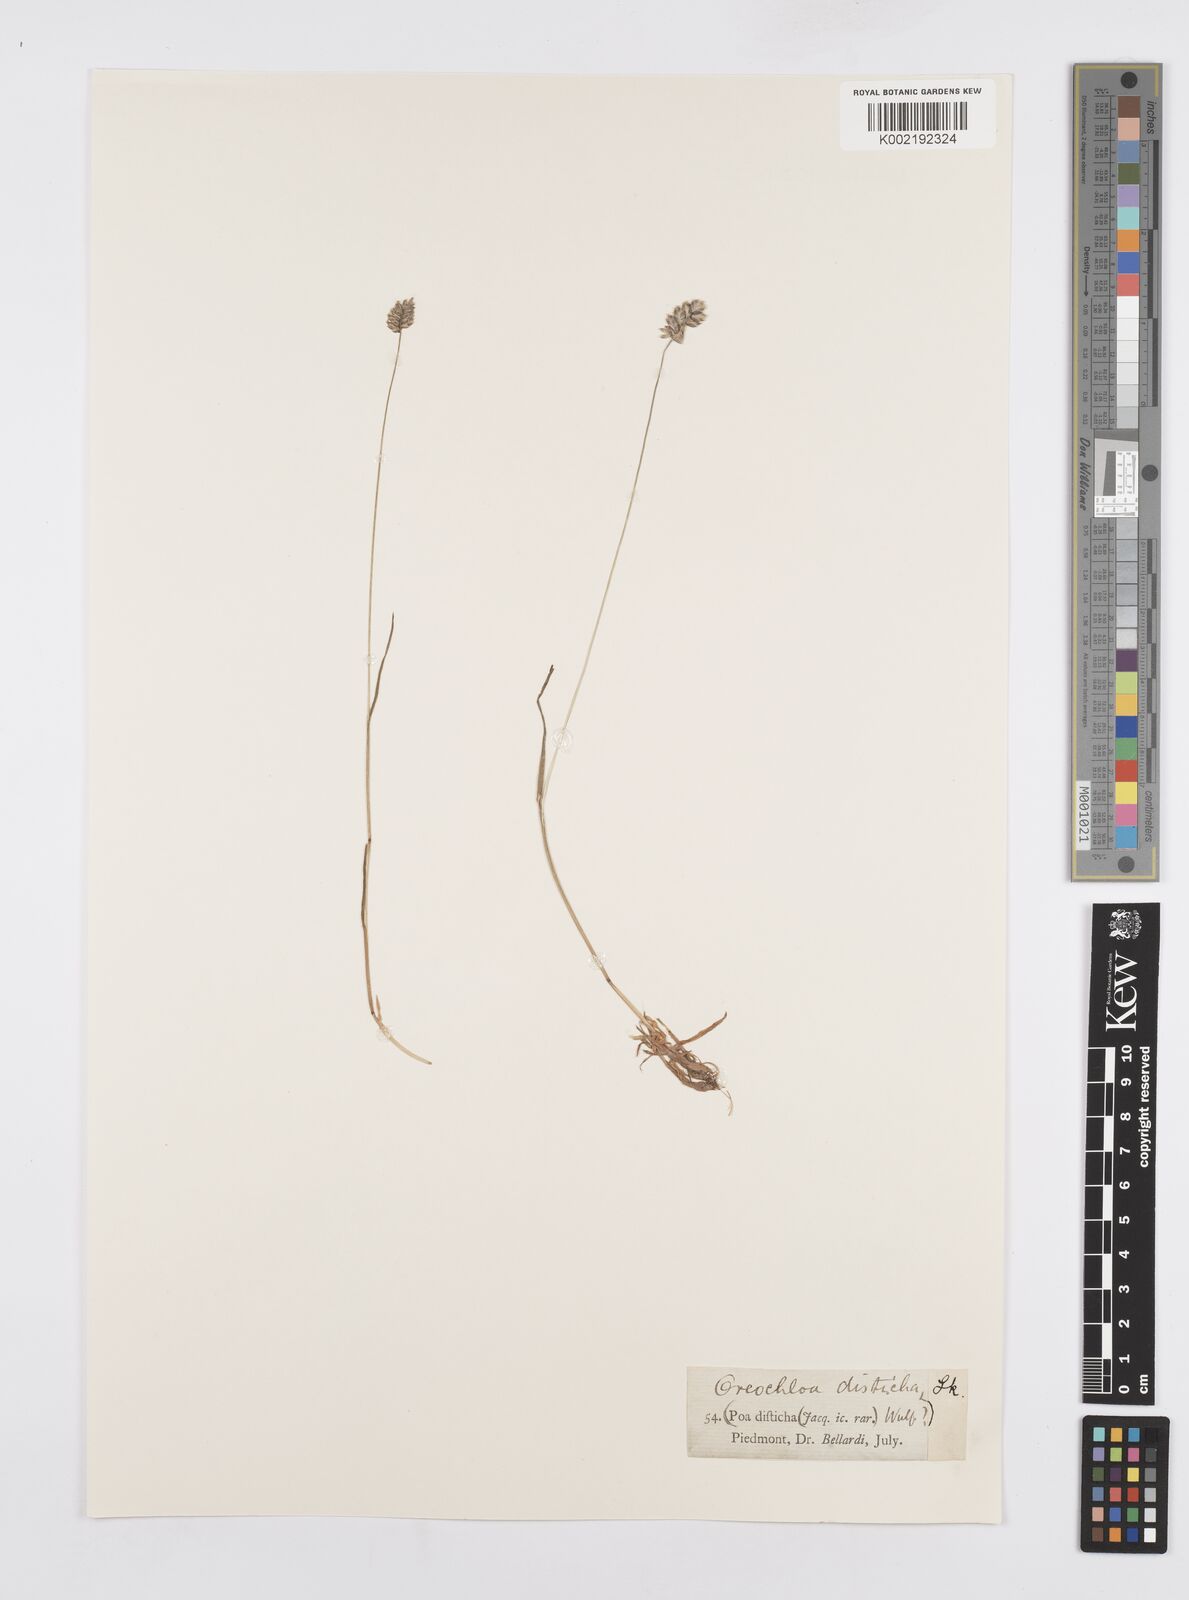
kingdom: Plantae
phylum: Tracheophyta
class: Liliopsida
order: Poales
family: Poaceae
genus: Oreochloa
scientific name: Oreochloa disticha
